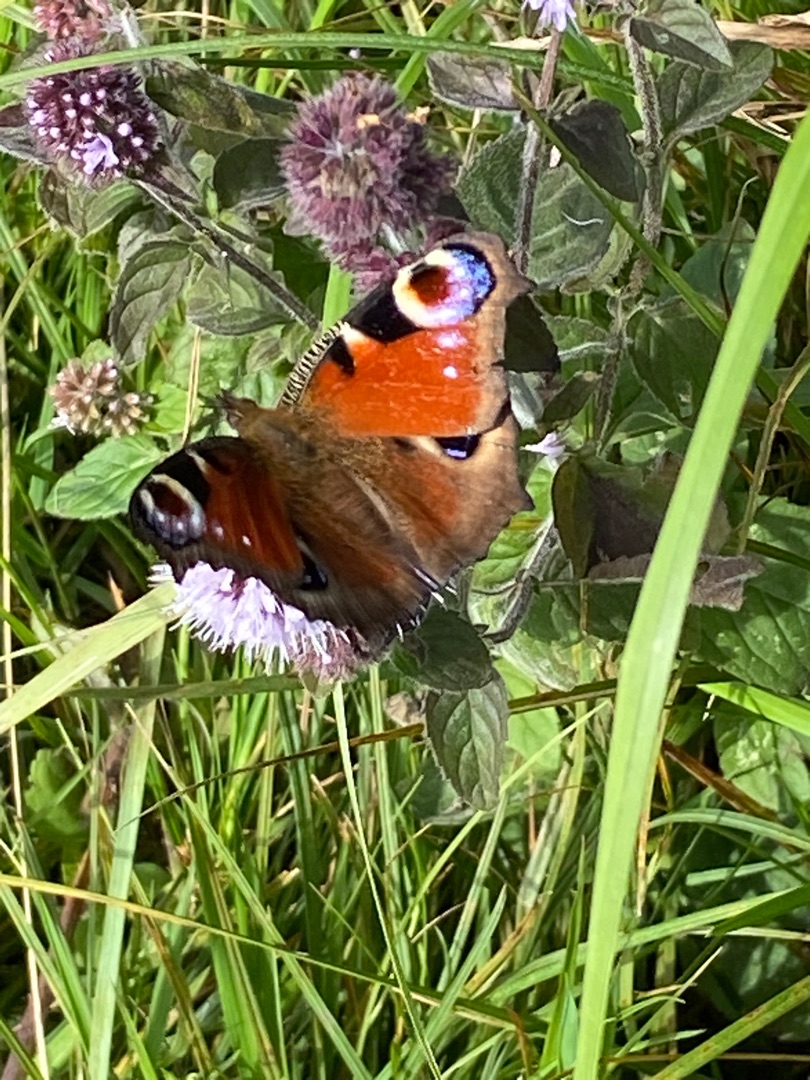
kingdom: Animalia
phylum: Arthropoda
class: Insecta
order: Lepidoptera
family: Nymphalidae
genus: Aglais
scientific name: Aglais io
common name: Dagpåfugleøje
